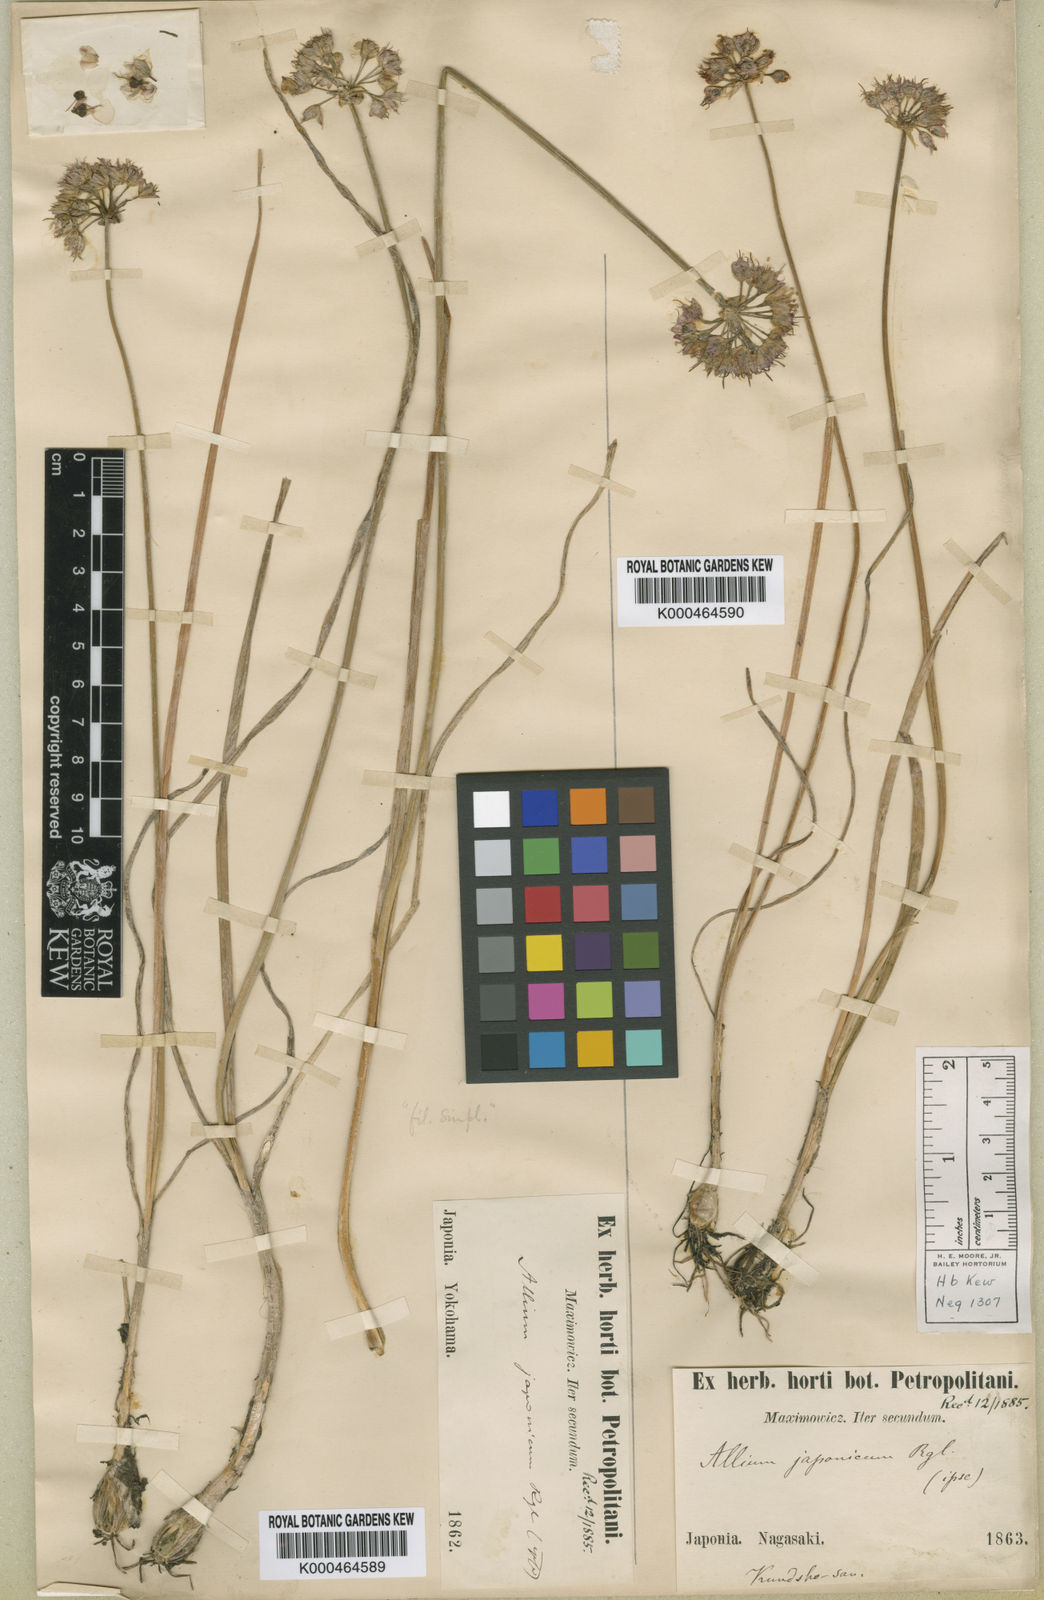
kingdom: Plantae
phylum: Tracheophyta
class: Liliopsida
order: Asparagales
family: Amaryllidaceae
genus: Allium
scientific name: Allium sacculiferum
